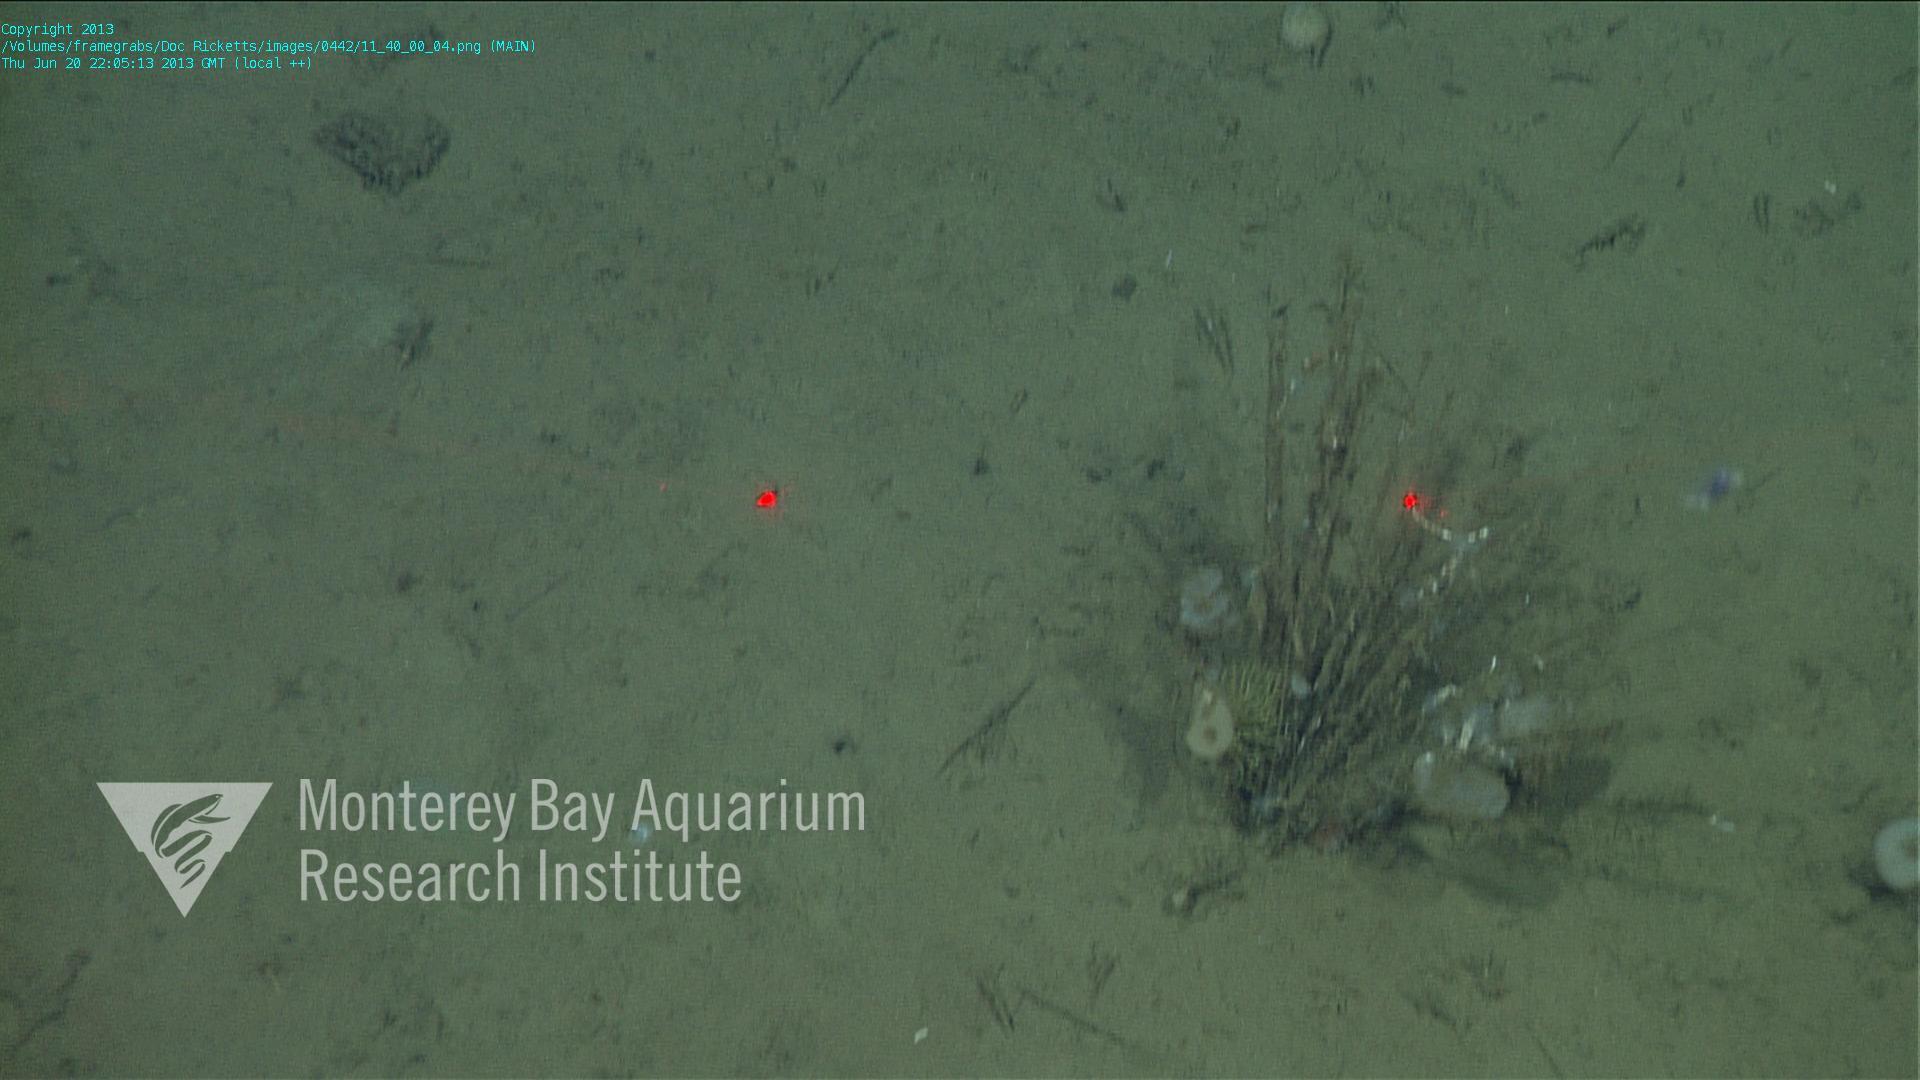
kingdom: Animalia
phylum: Porifera
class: Hexactinellida
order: Lyssacinosida
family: Rossellidae
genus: Bathydorus
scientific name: Bathydorus spinosus
